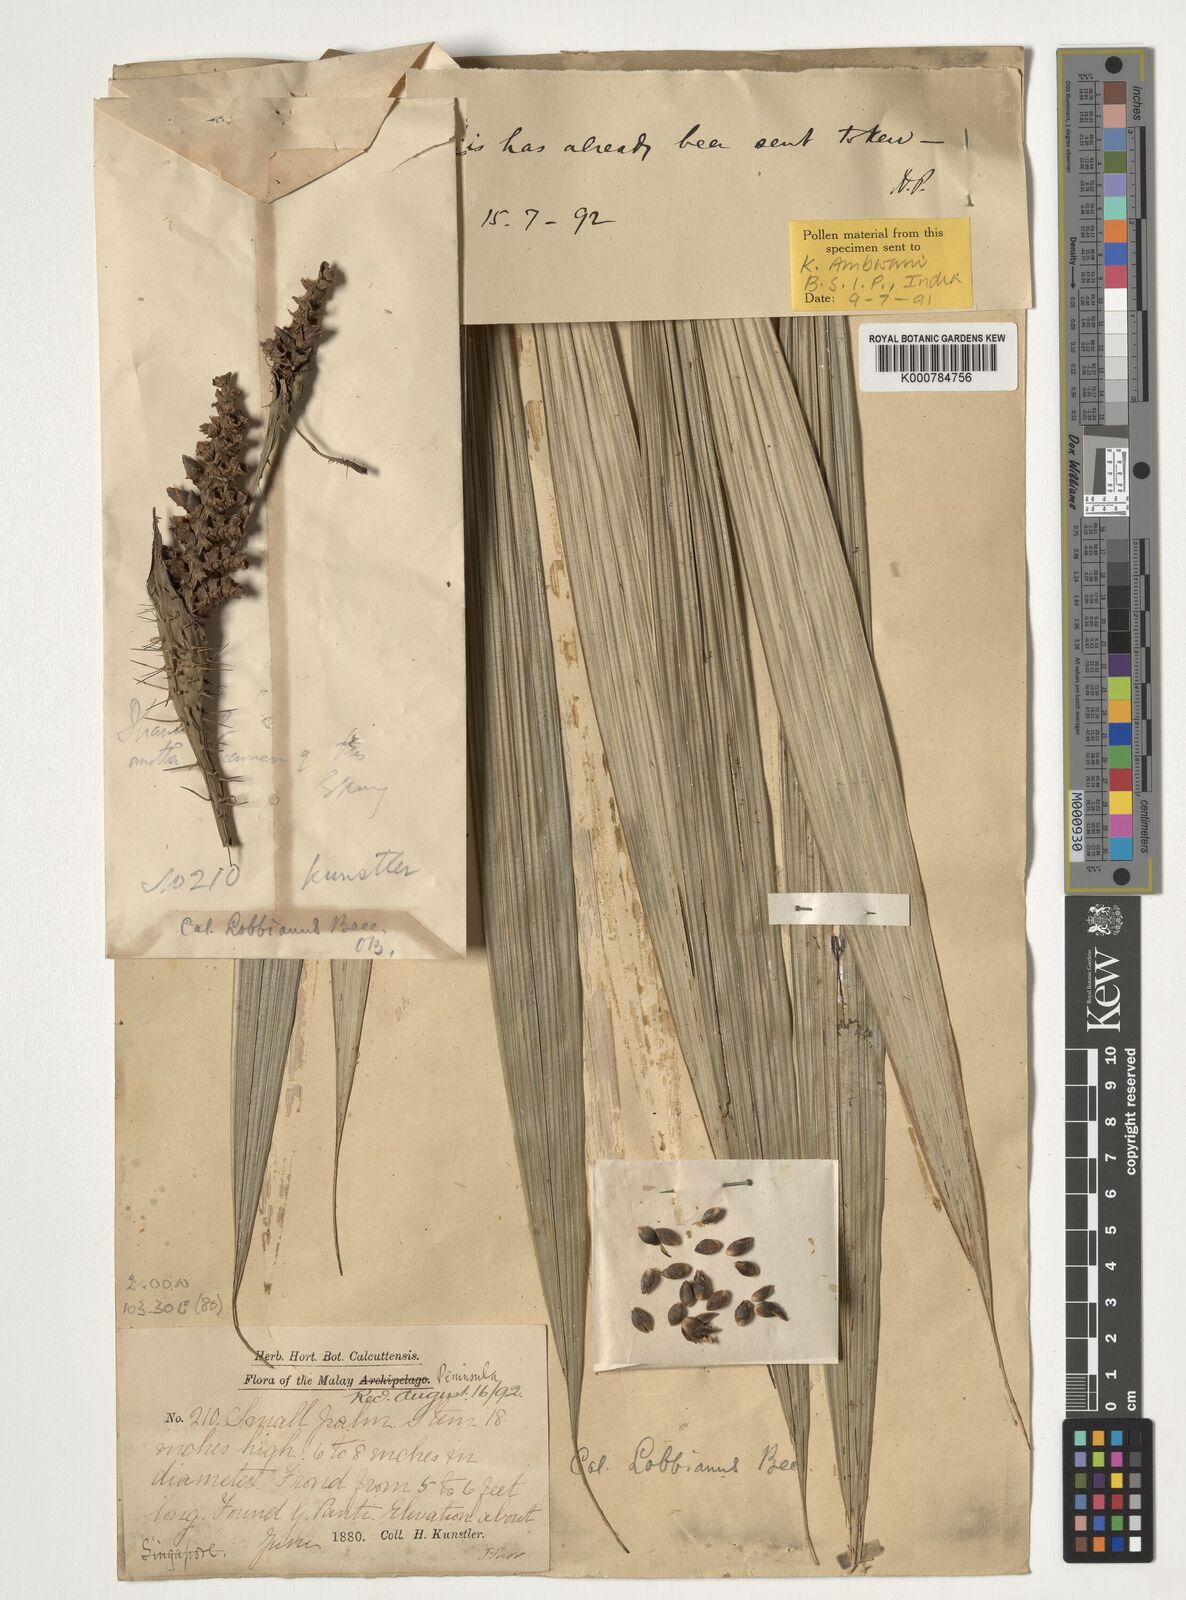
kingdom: Plantae
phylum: Tracheophyta
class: Liliopsida
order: Arecales
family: Arecaceae
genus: Calamus
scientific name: Calamus lobbianus
